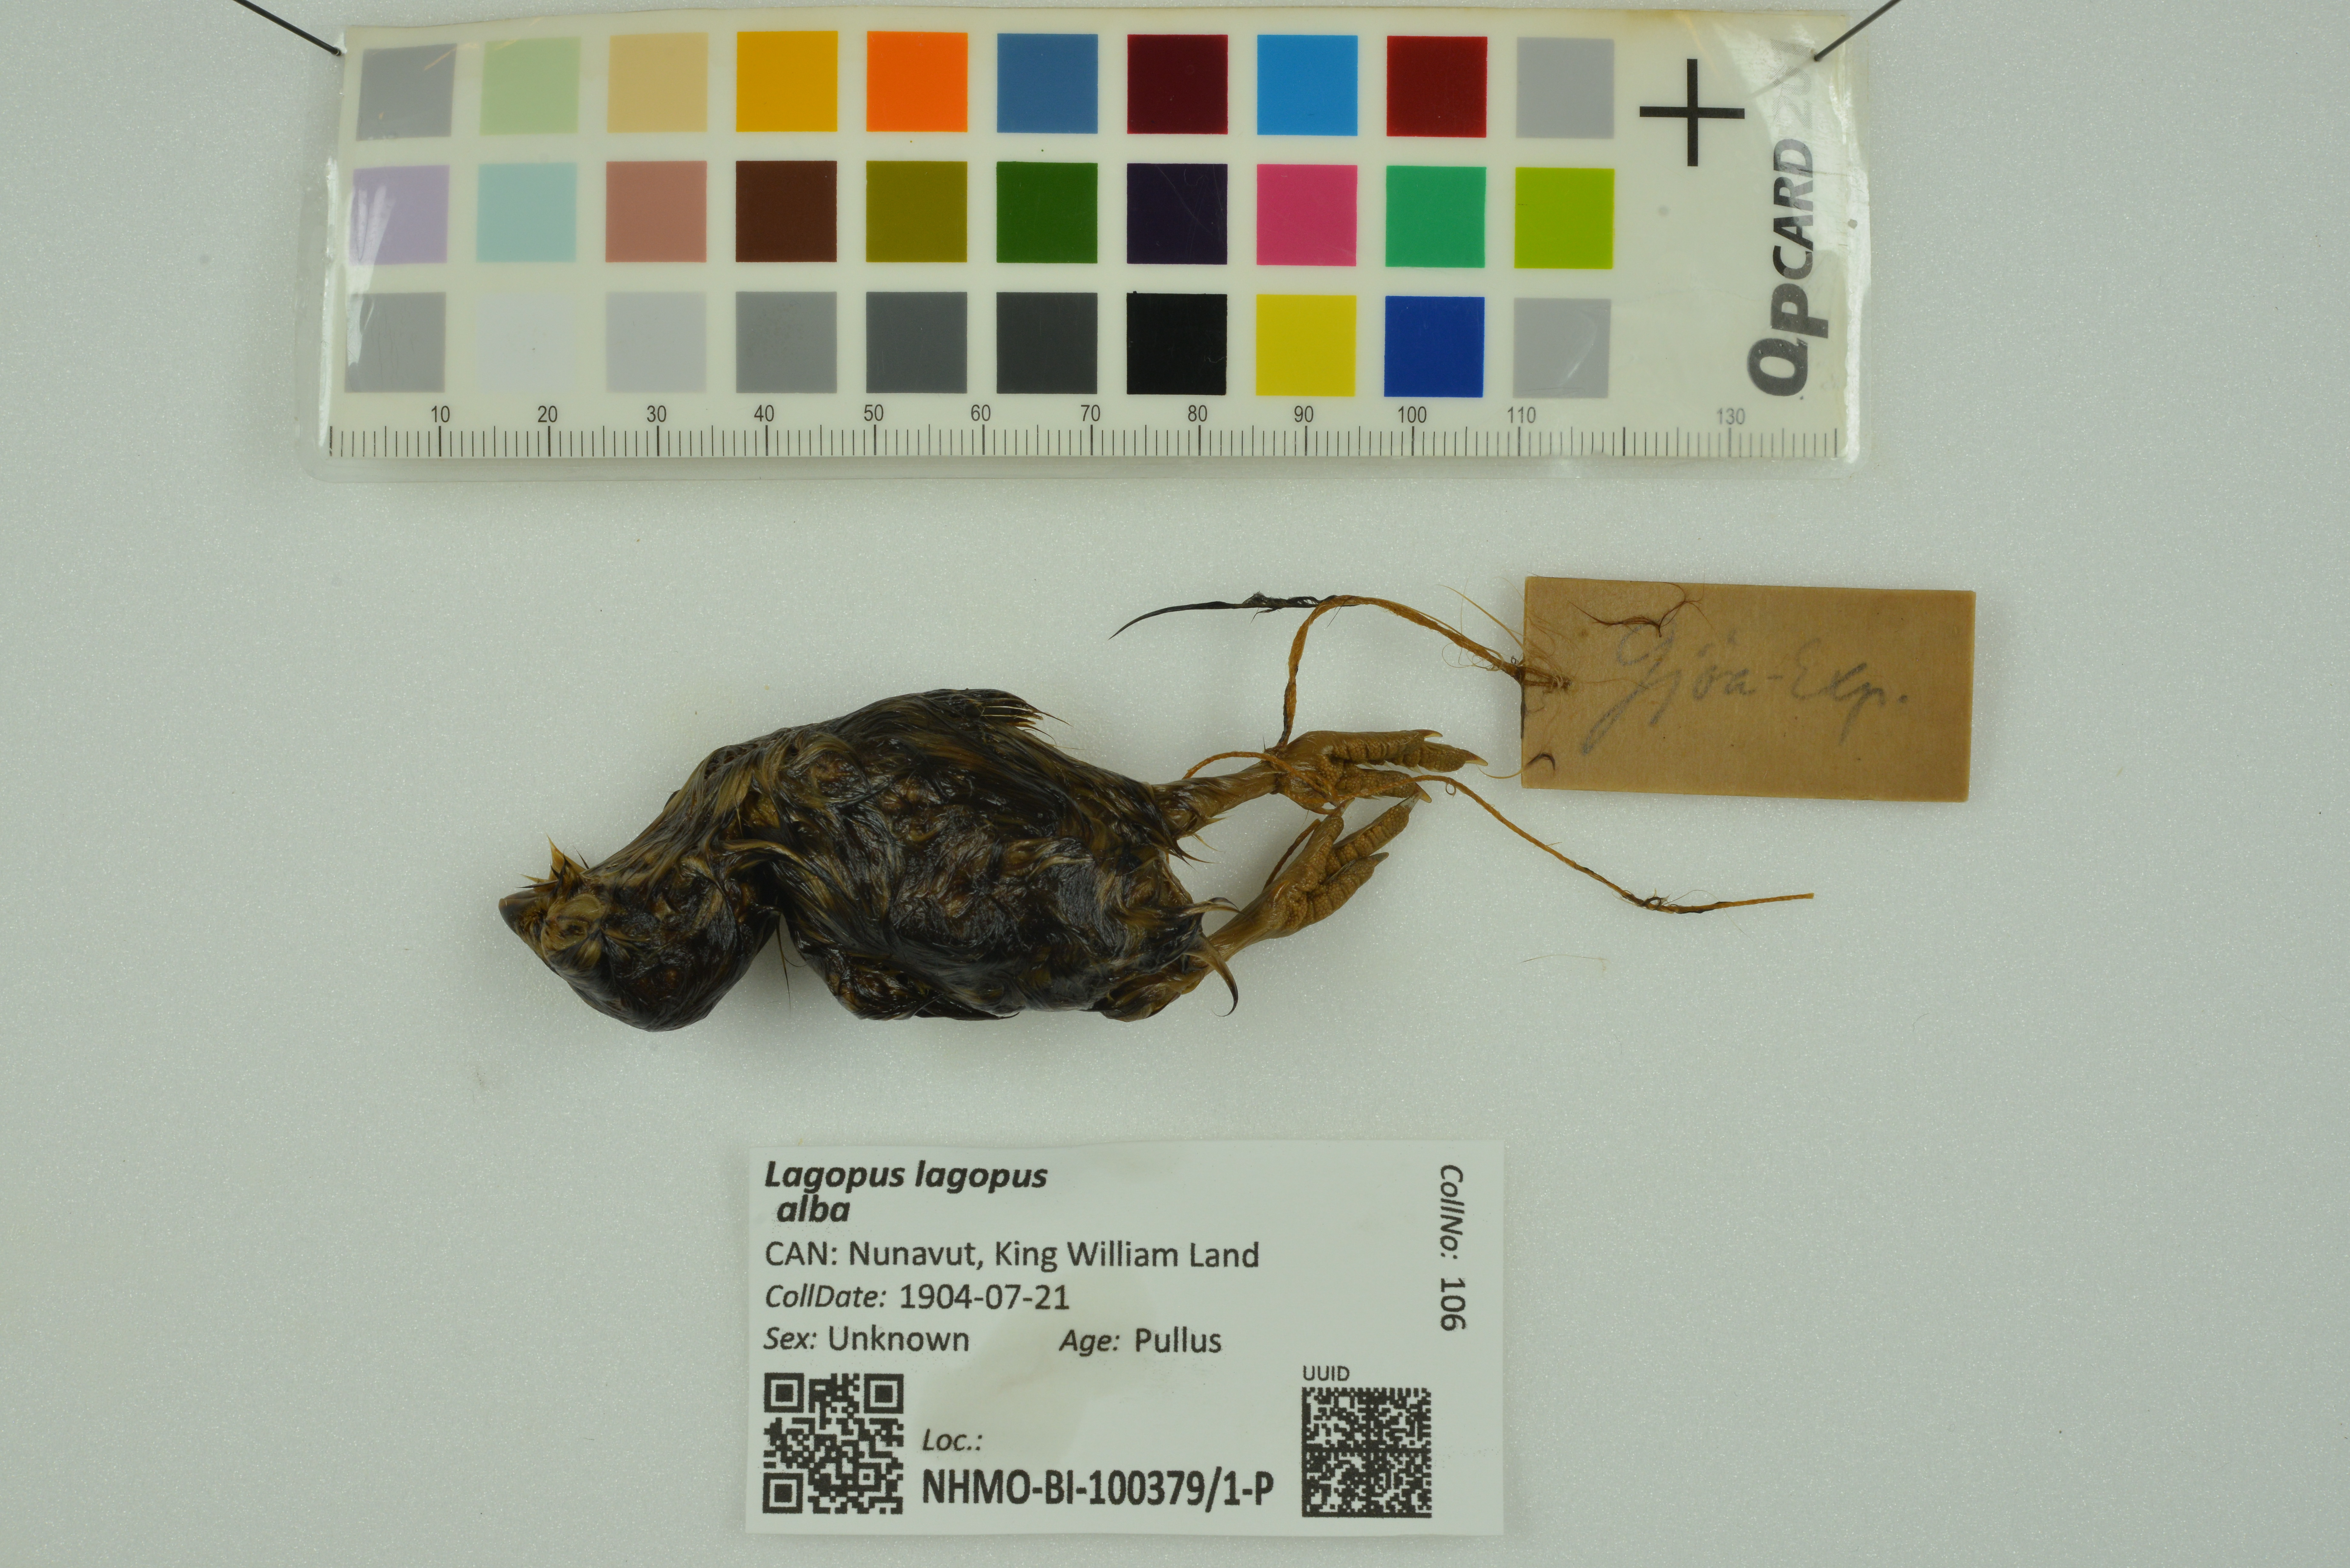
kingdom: Animalia
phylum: Chordata
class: Aves
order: Galliformes
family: Phasianidae
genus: Lagopus
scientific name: Lagopus lagopus
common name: Willow ptarmigan
